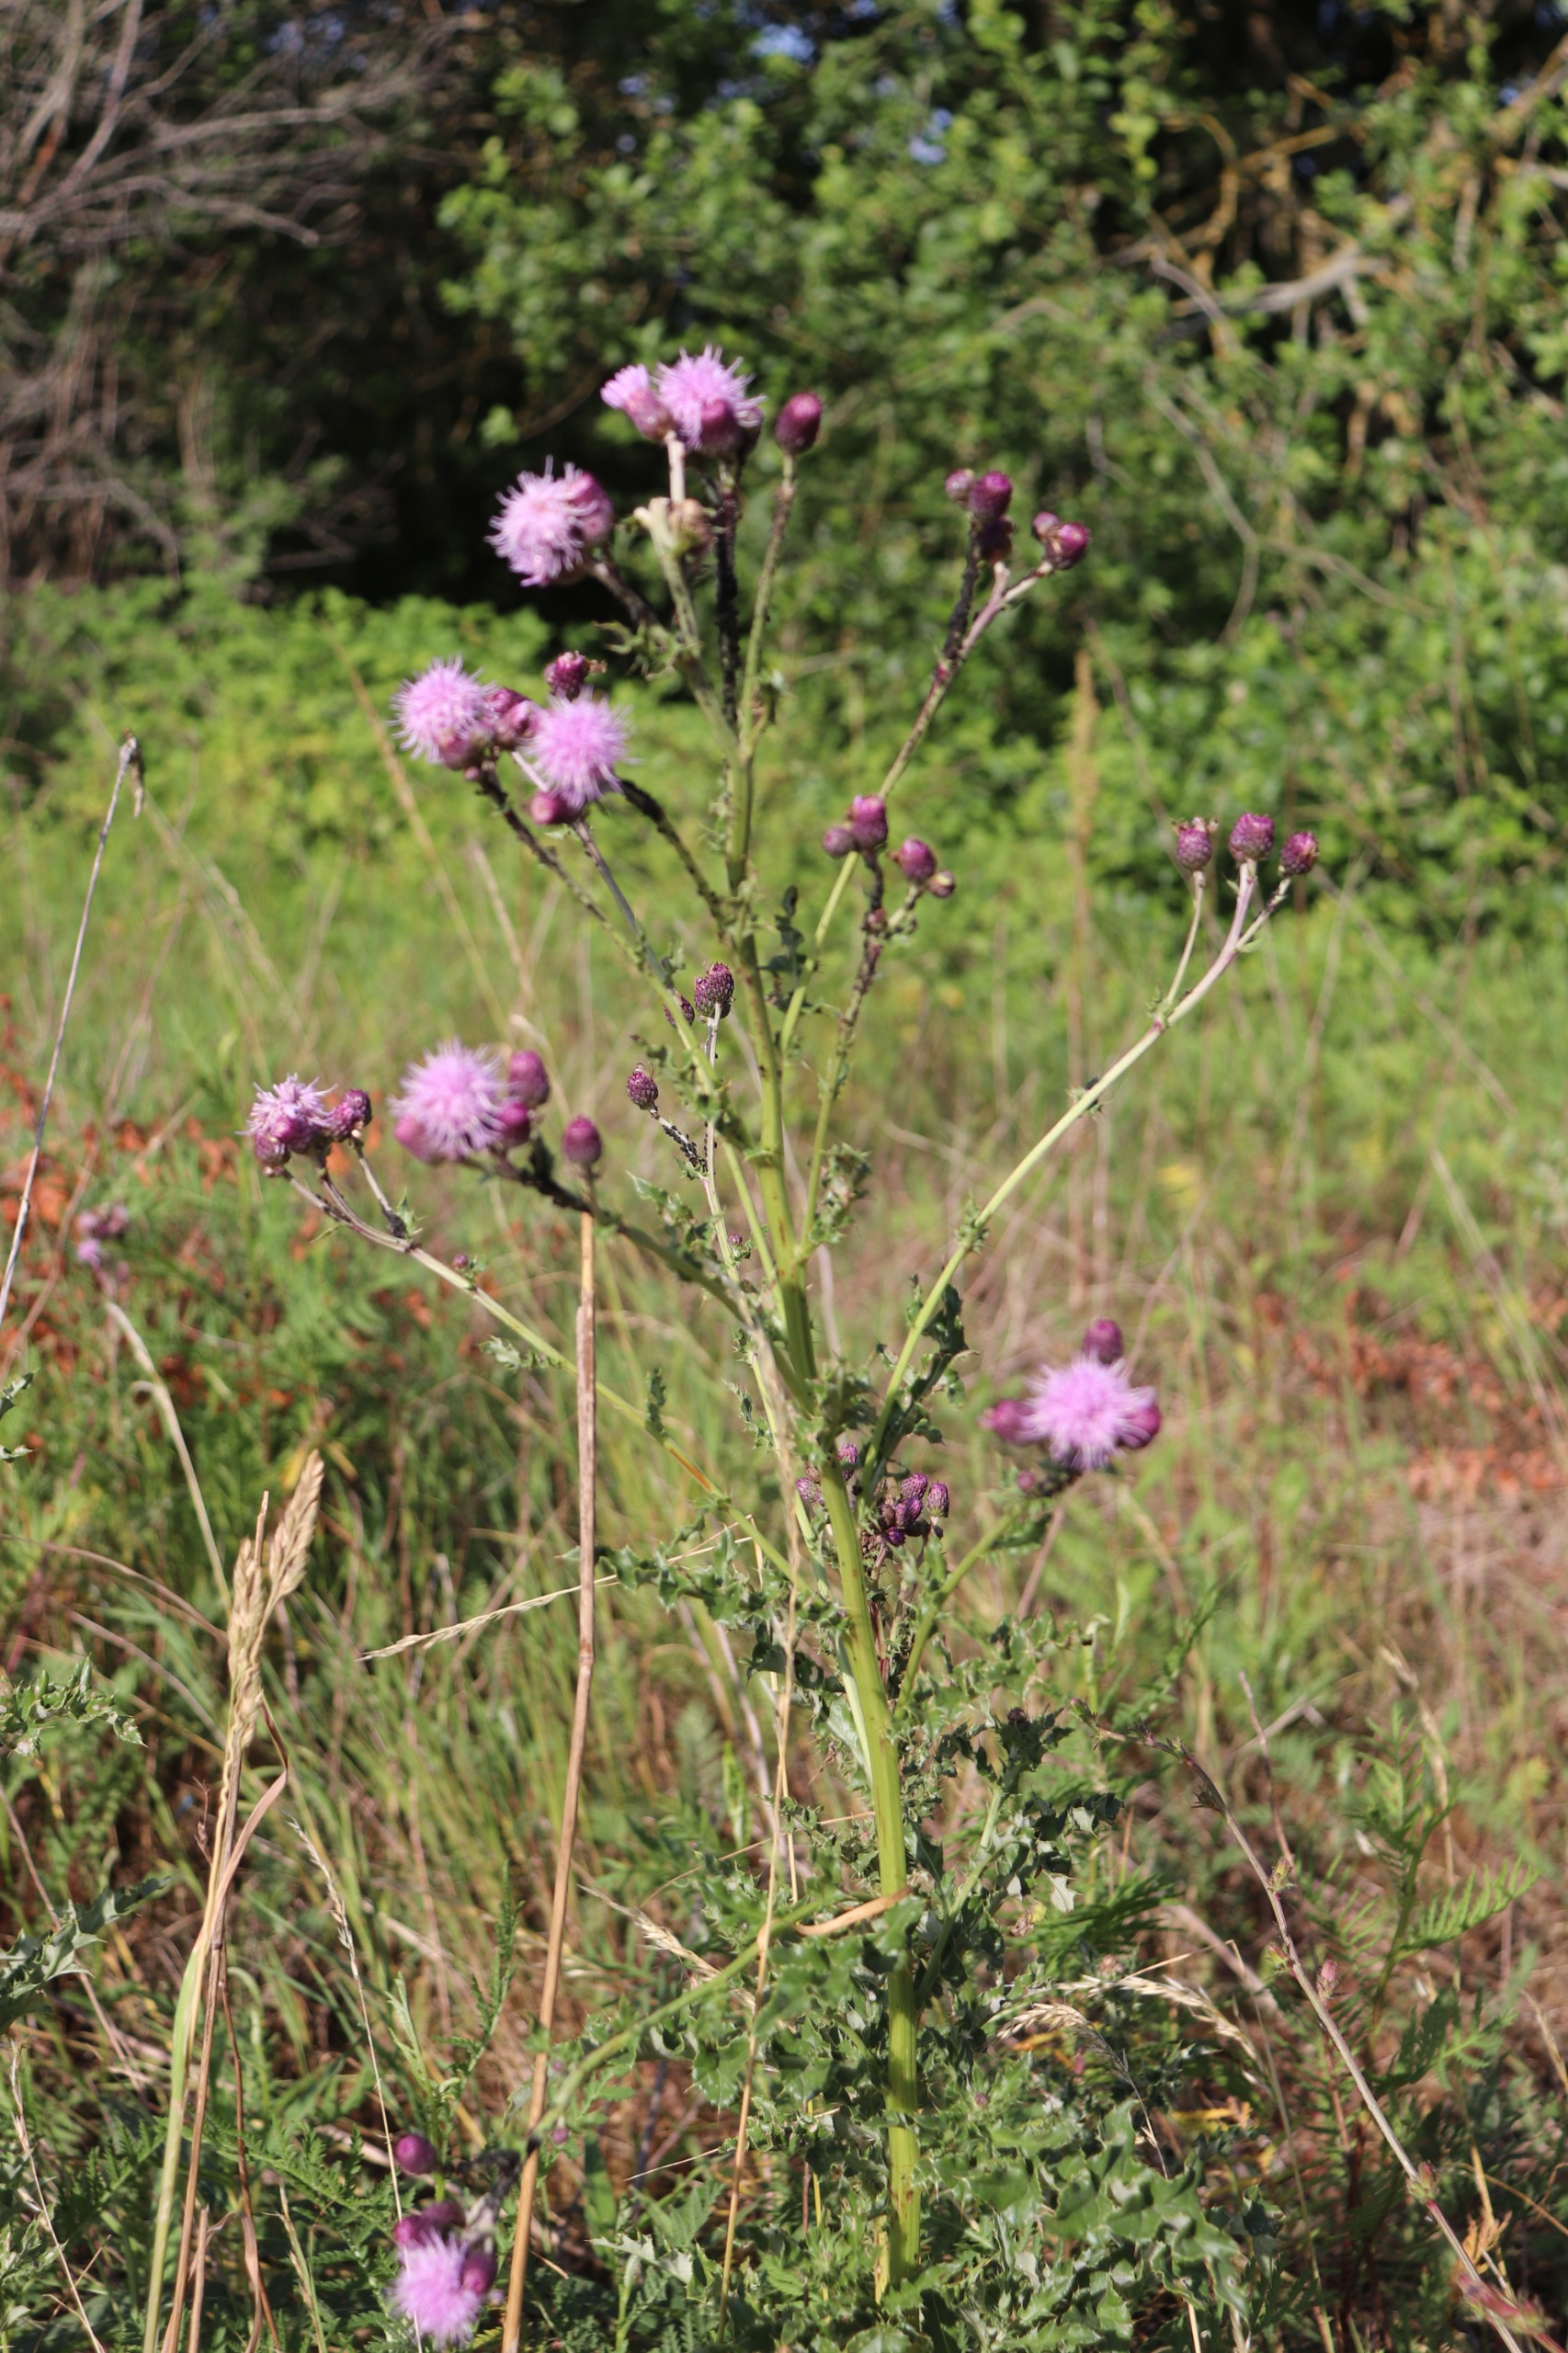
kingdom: Plantae
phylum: Tracheophyta
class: Magnoliopsida
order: Asterales
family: Asteraceae
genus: Cirsium
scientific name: Cirsium arvense
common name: Ager-tidsel
